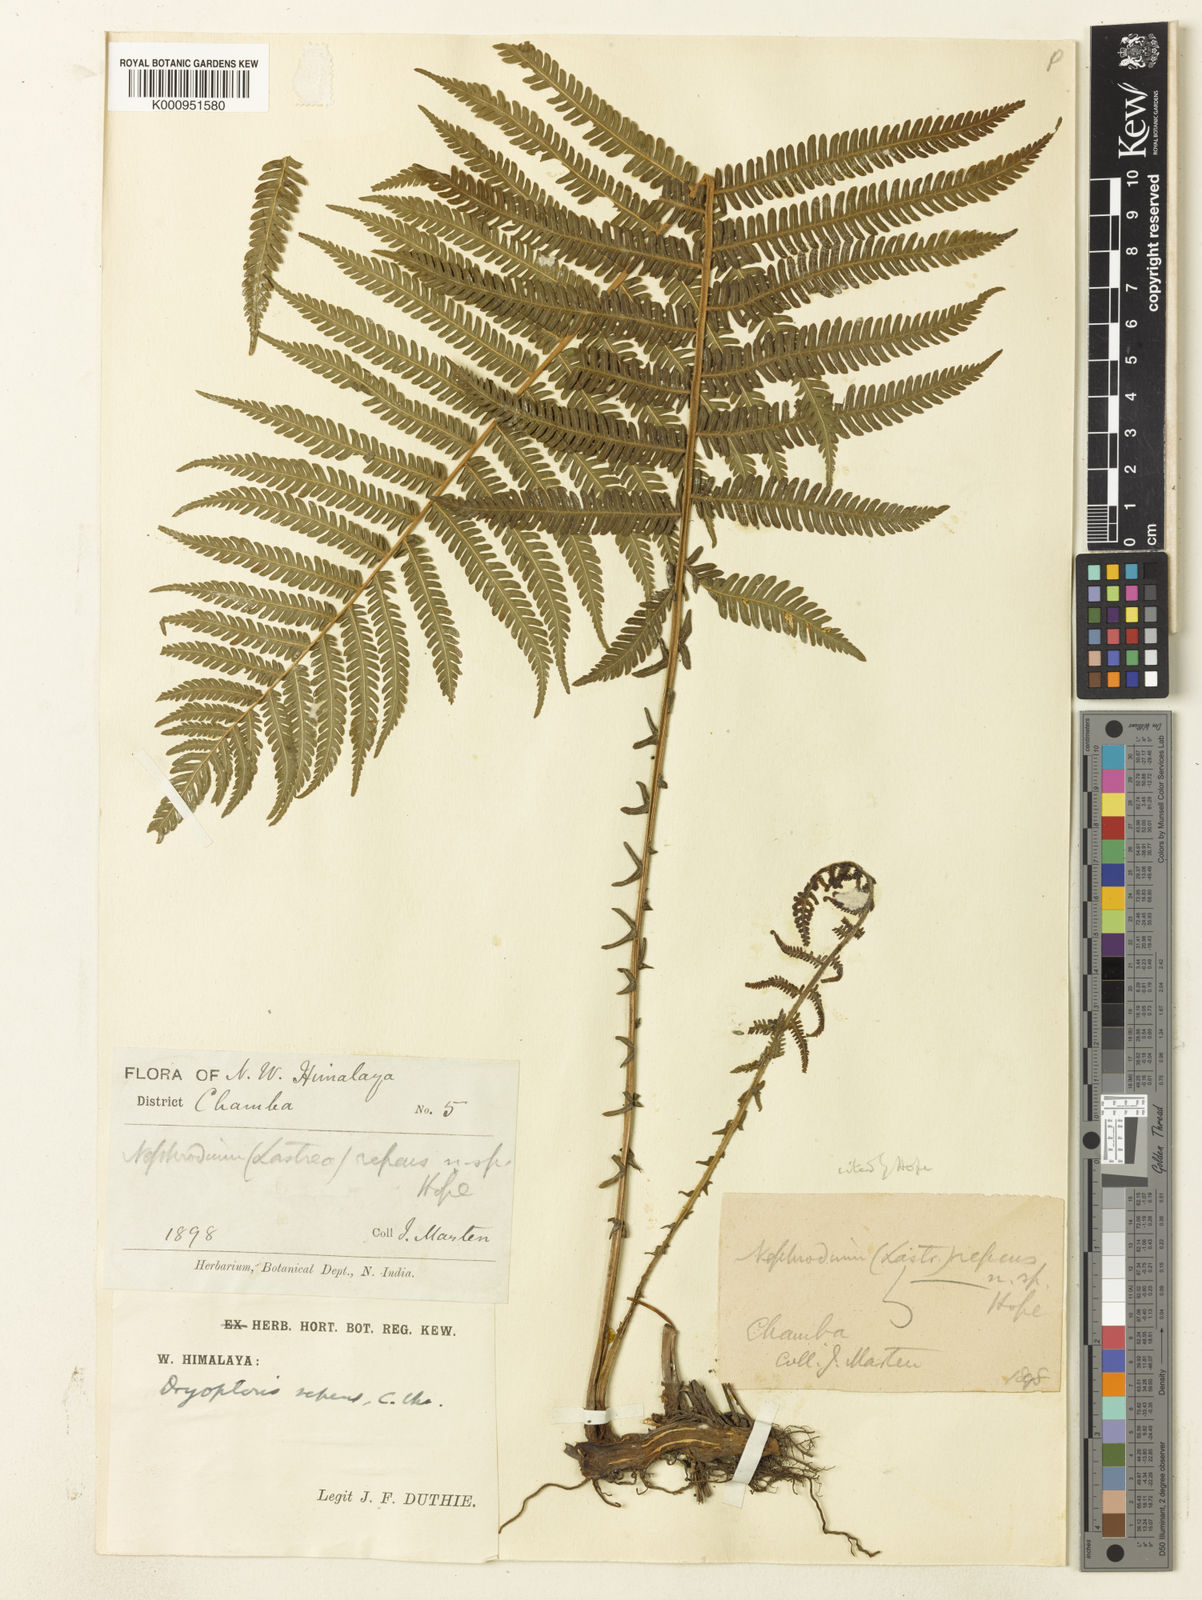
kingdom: Plantae
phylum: Tracheophyta
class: Polypodiopsida
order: Polypodiales
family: Thelypteridaceae
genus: Pseudocyclosorus
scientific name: Pseudocyclosorus canus
